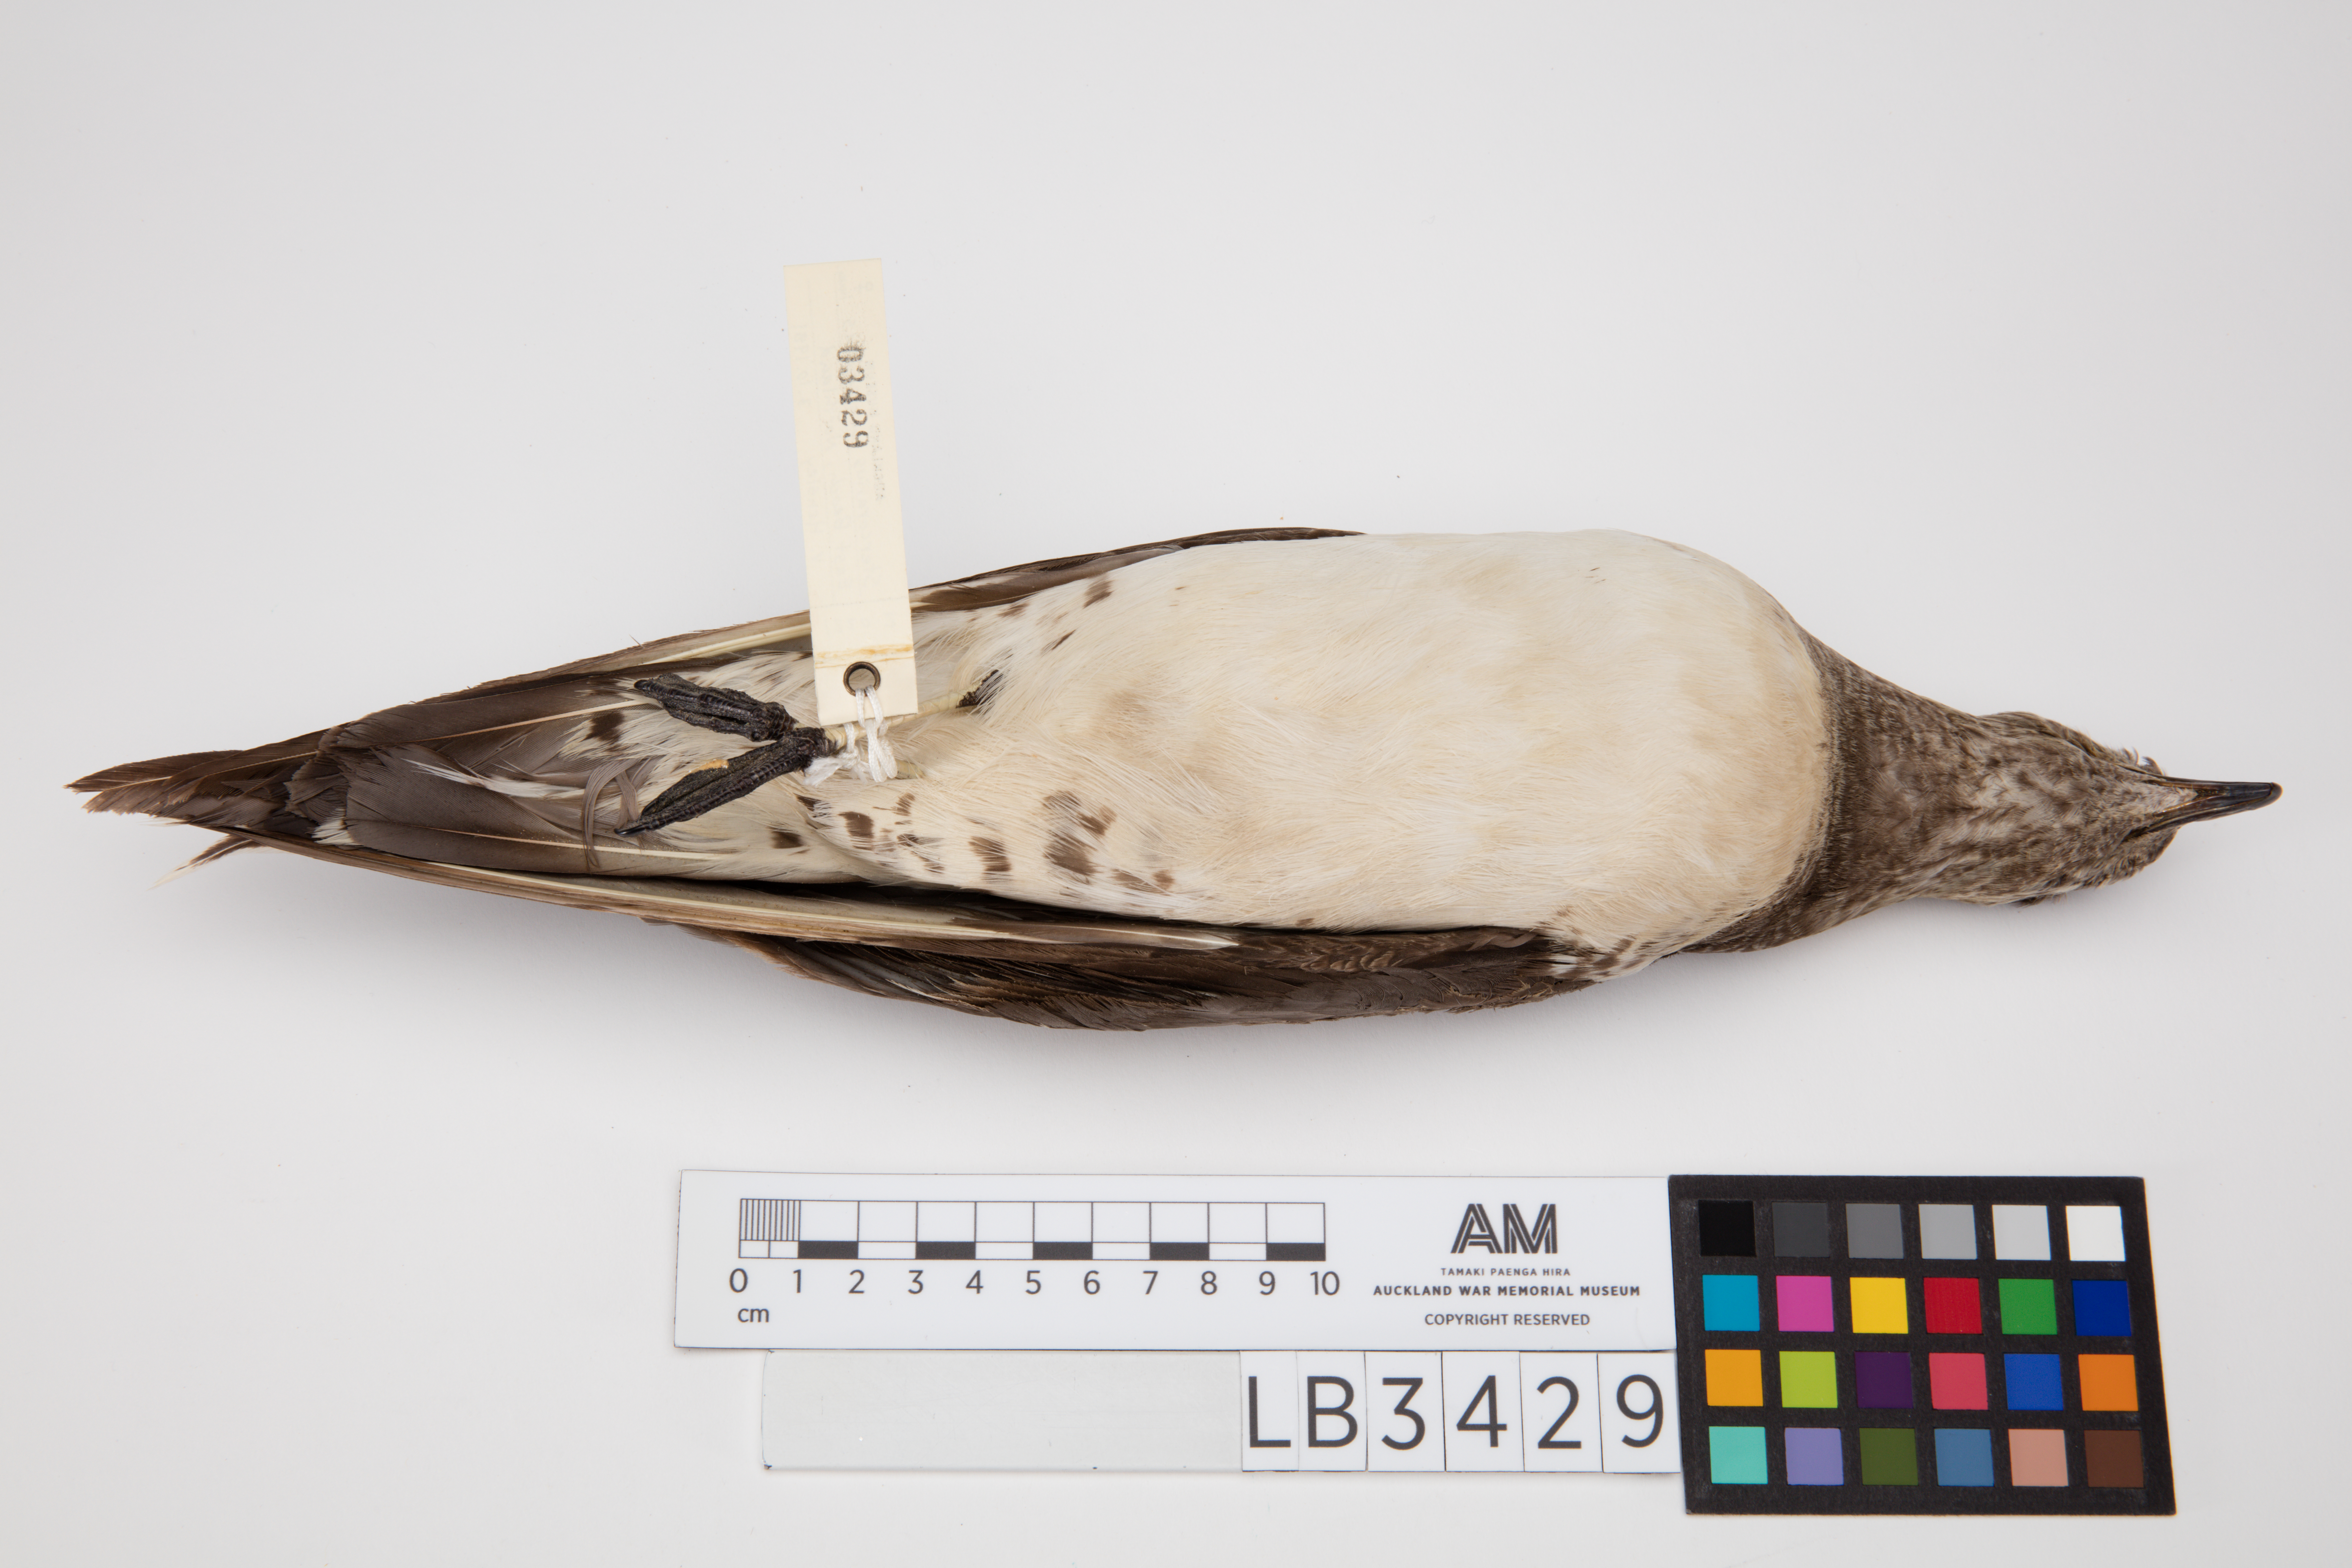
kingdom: Animalia
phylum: Chordata
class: Aves
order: Charadriiformes
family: Stercorariidae
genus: Stercorarius
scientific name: Stercorarius longicaudus
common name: Long-tailed jaeger
